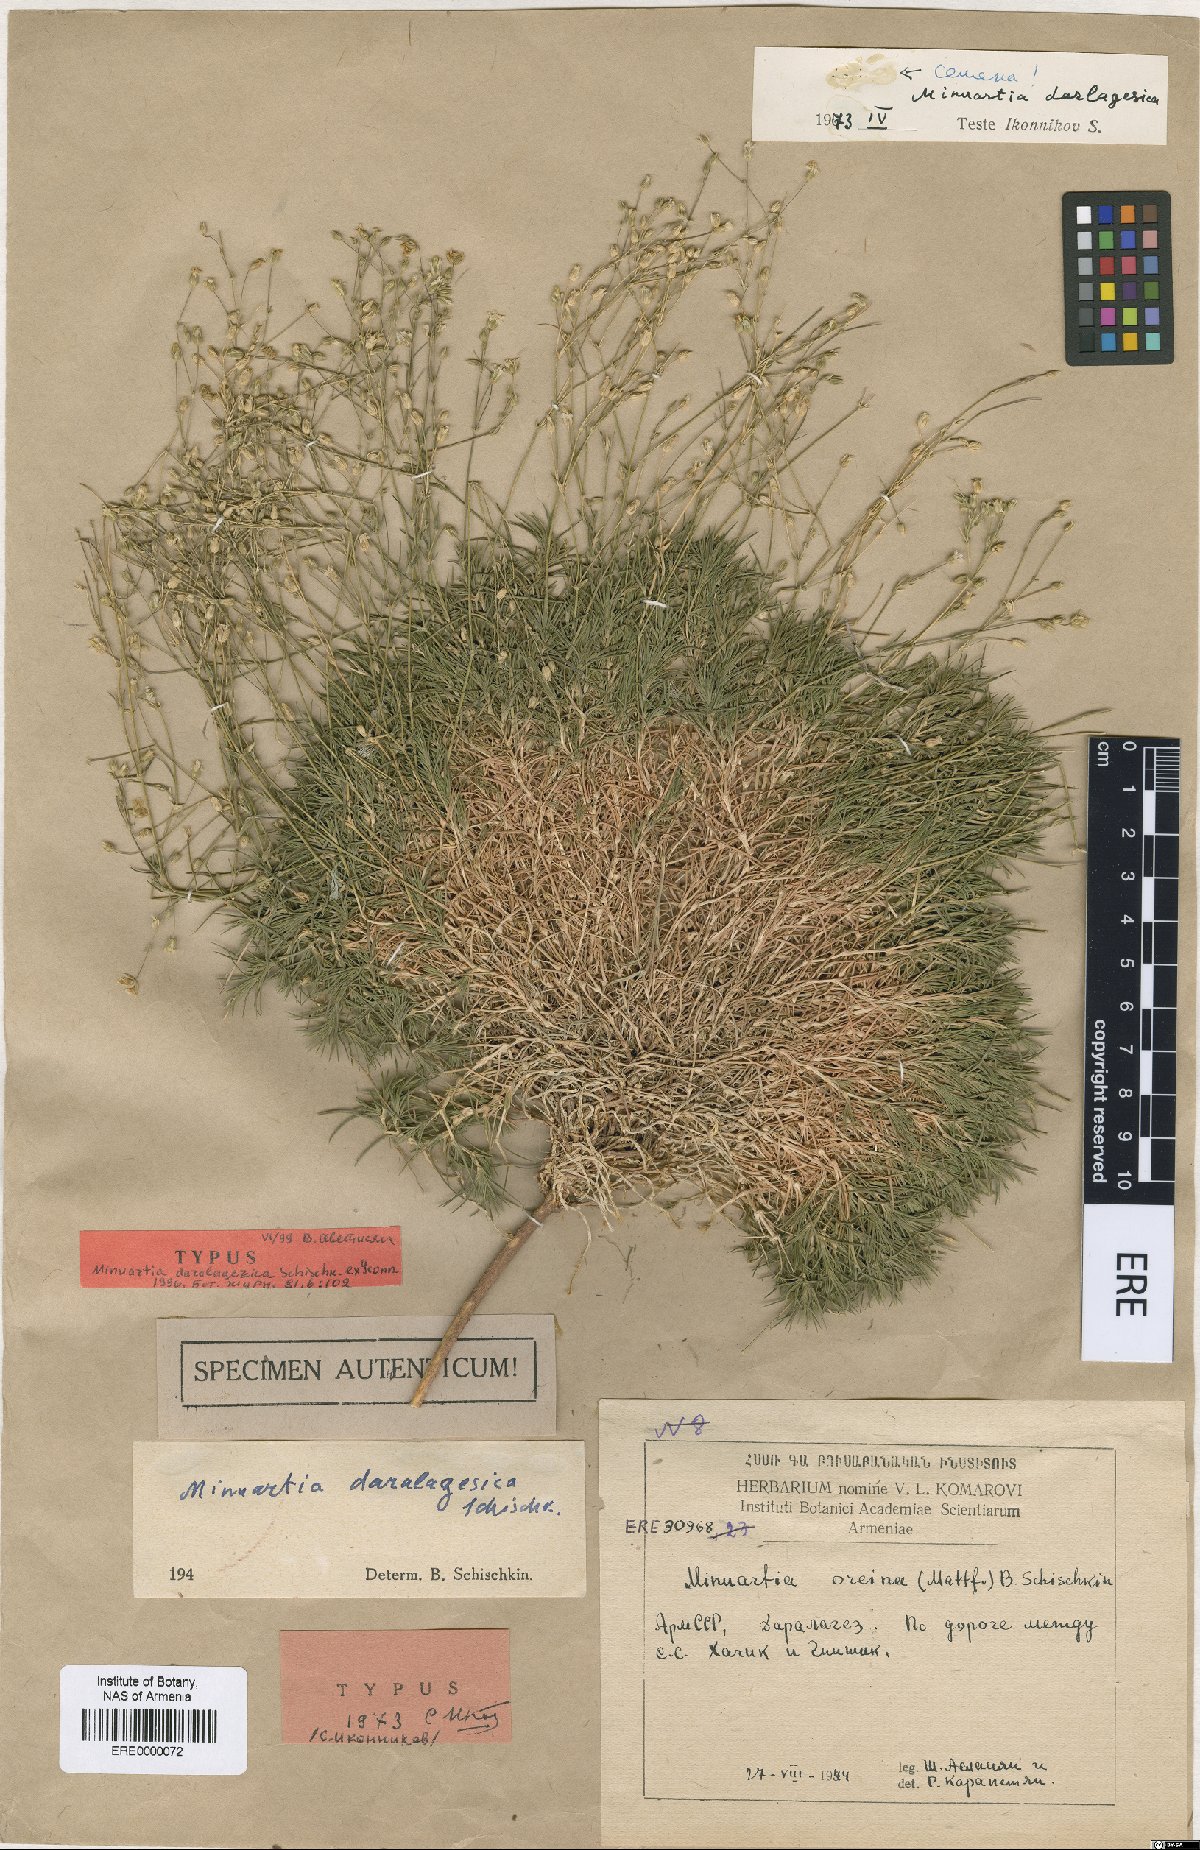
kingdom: Plantae
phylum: Tracheophyta
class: Magnoliopsida
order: Caryophyllales
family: Caryophyllaceae
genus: Sabulina
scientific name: Sabulina daralagezica
